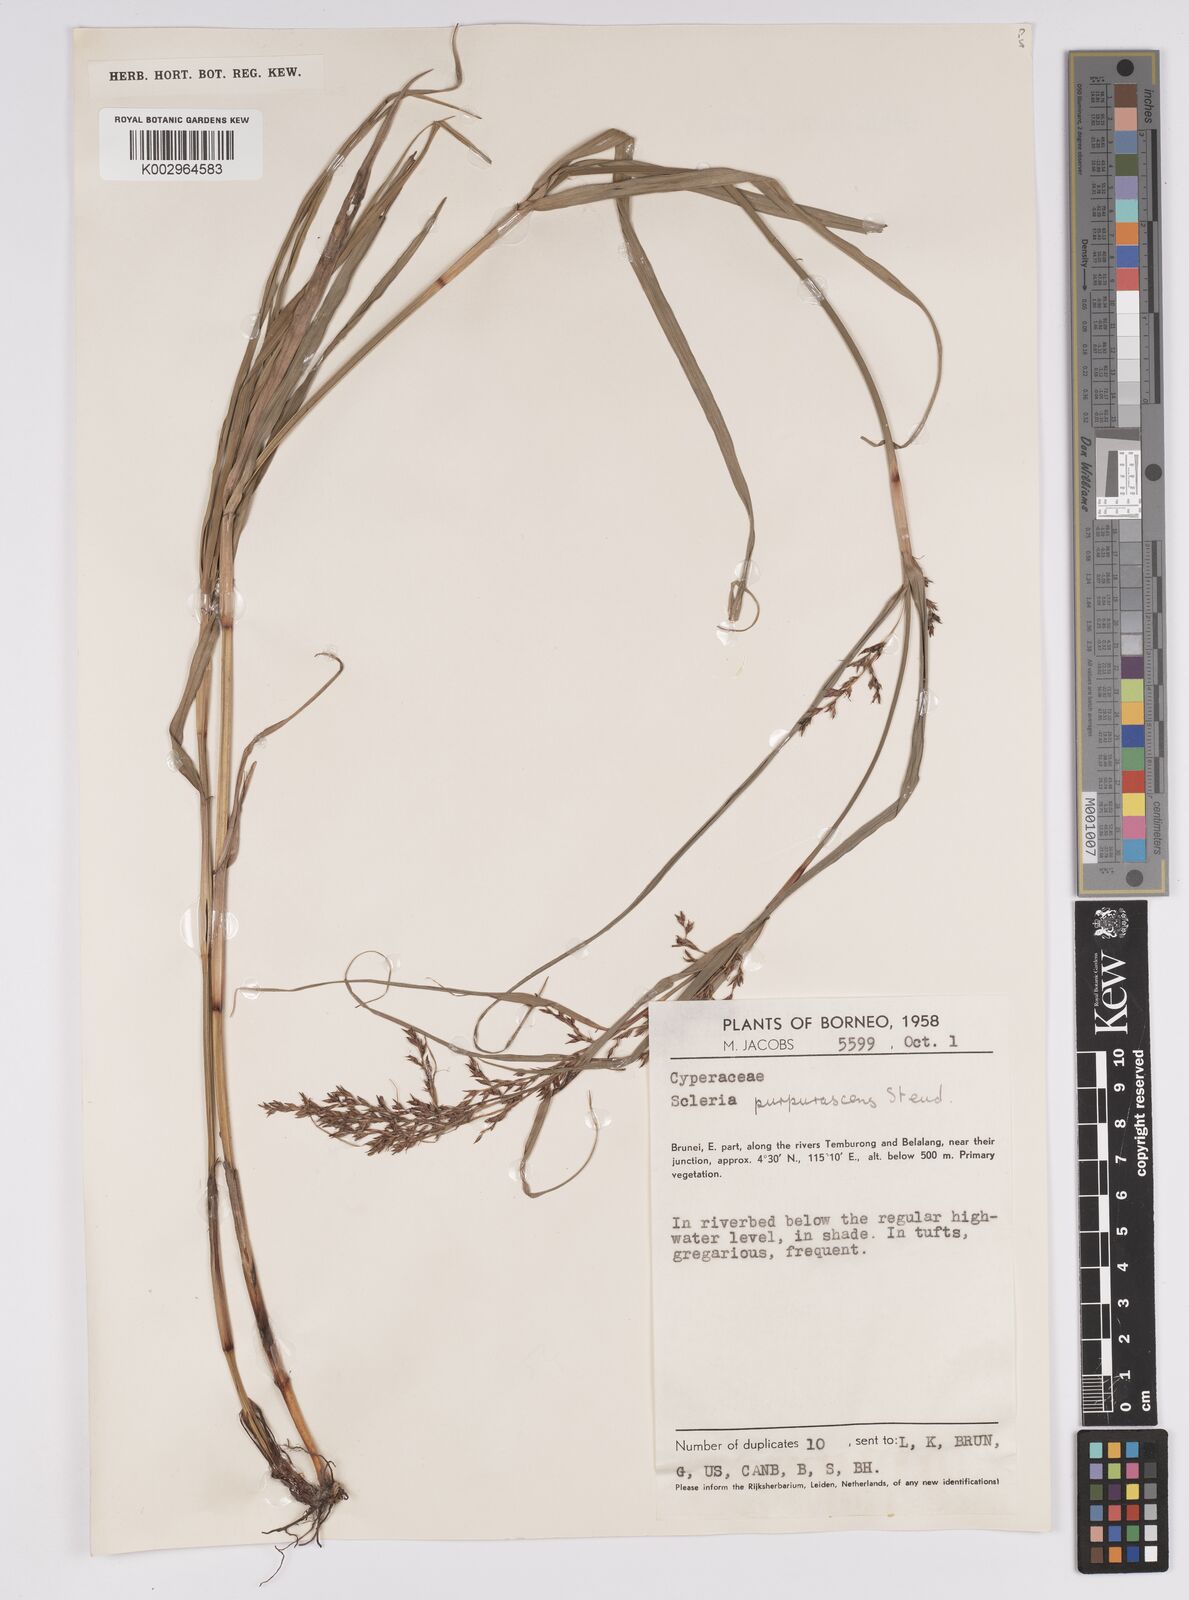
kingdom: Plantae
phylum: Tracheophyta
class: Liliopsida
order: Poales
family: Cyperaceae
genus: Scleria
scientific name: Scleria purpurascens
